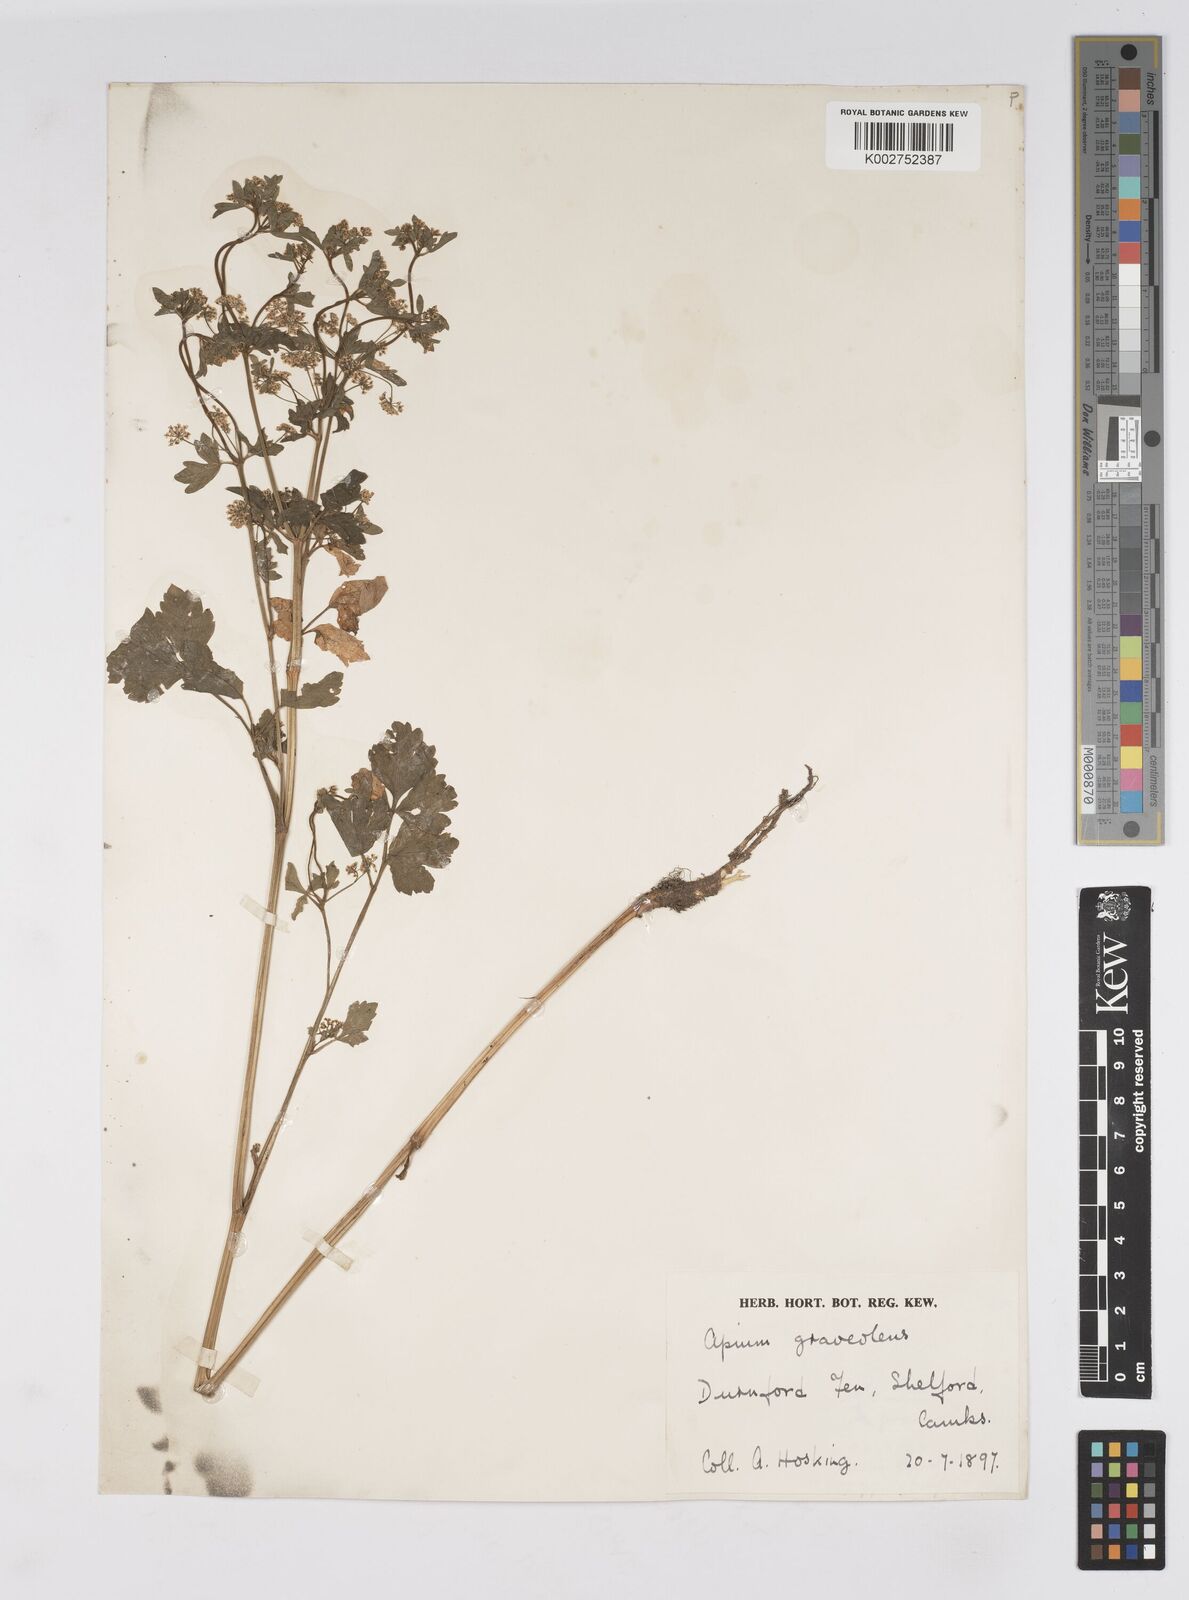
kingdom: Plantae
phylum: Tracheophyta
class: Magnoliopsida
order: Apiales
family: Apiaceae
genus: Apium
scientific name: Apium graveolens
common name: Wild celery
